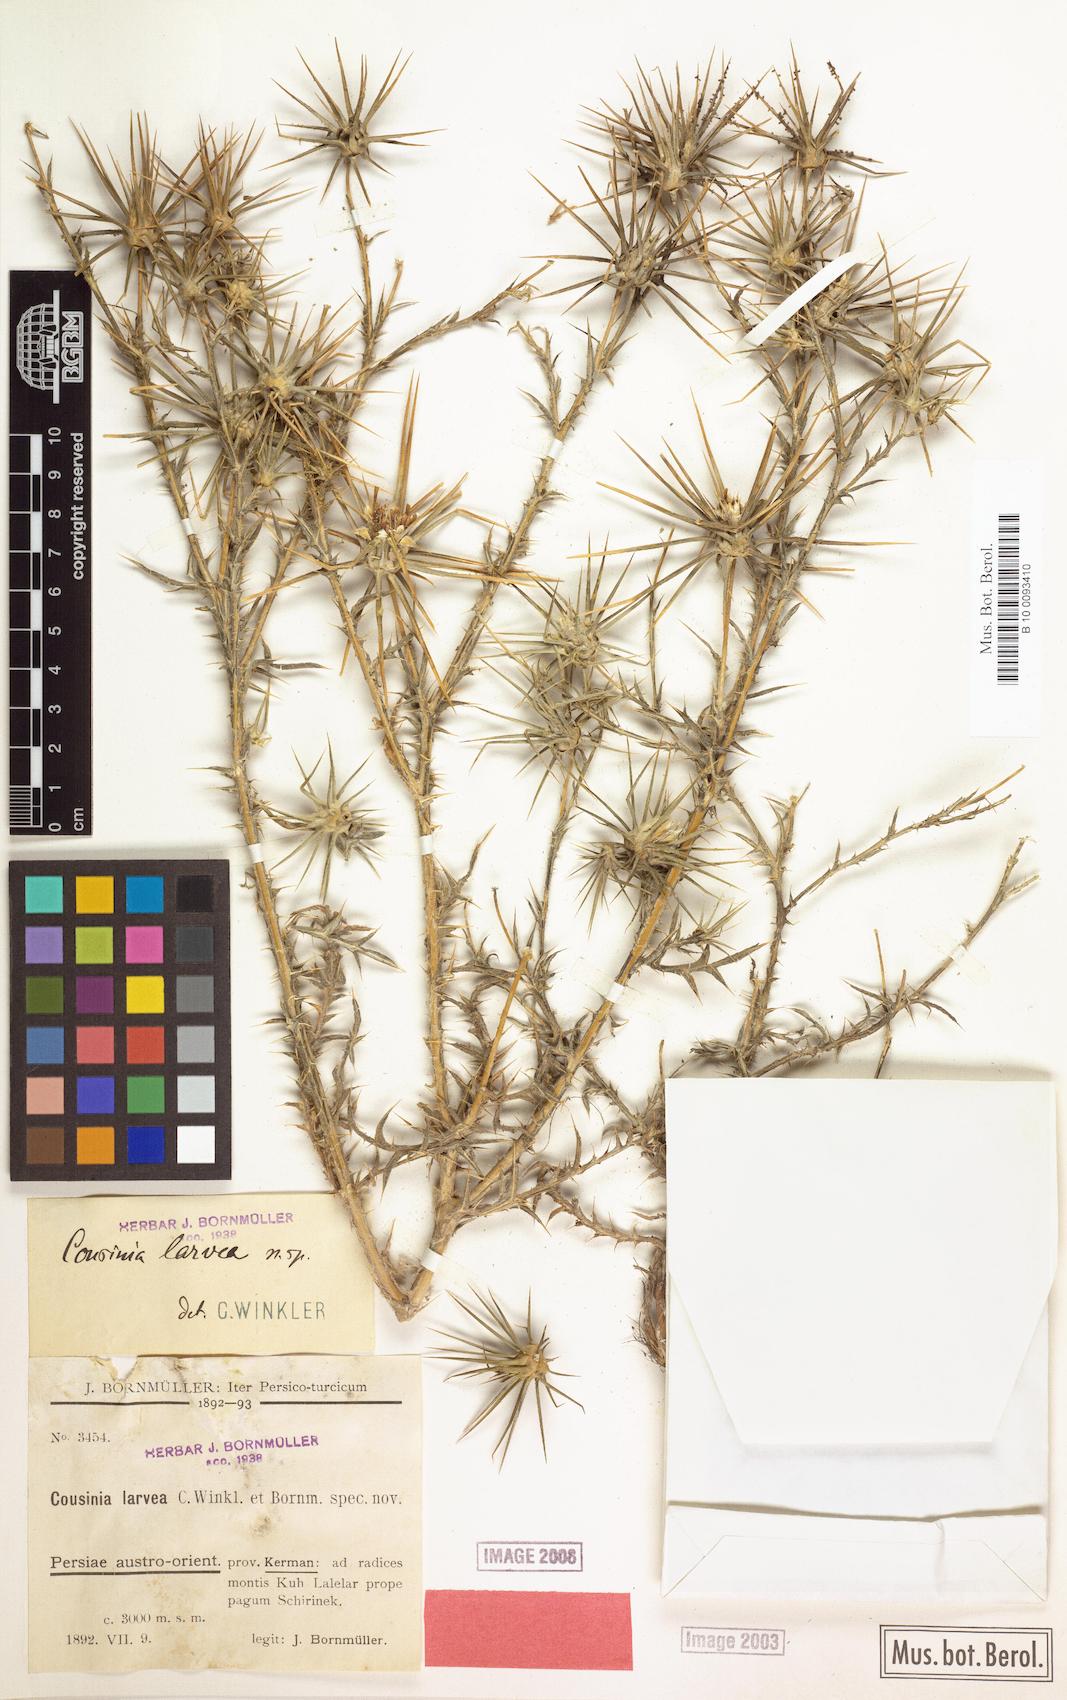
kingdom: Plantae
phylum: Tracheophyta
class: Magnoliopsida
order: Asterales
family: Asteraceae
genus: Cousinia
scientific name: Cousinia calcitrapa
